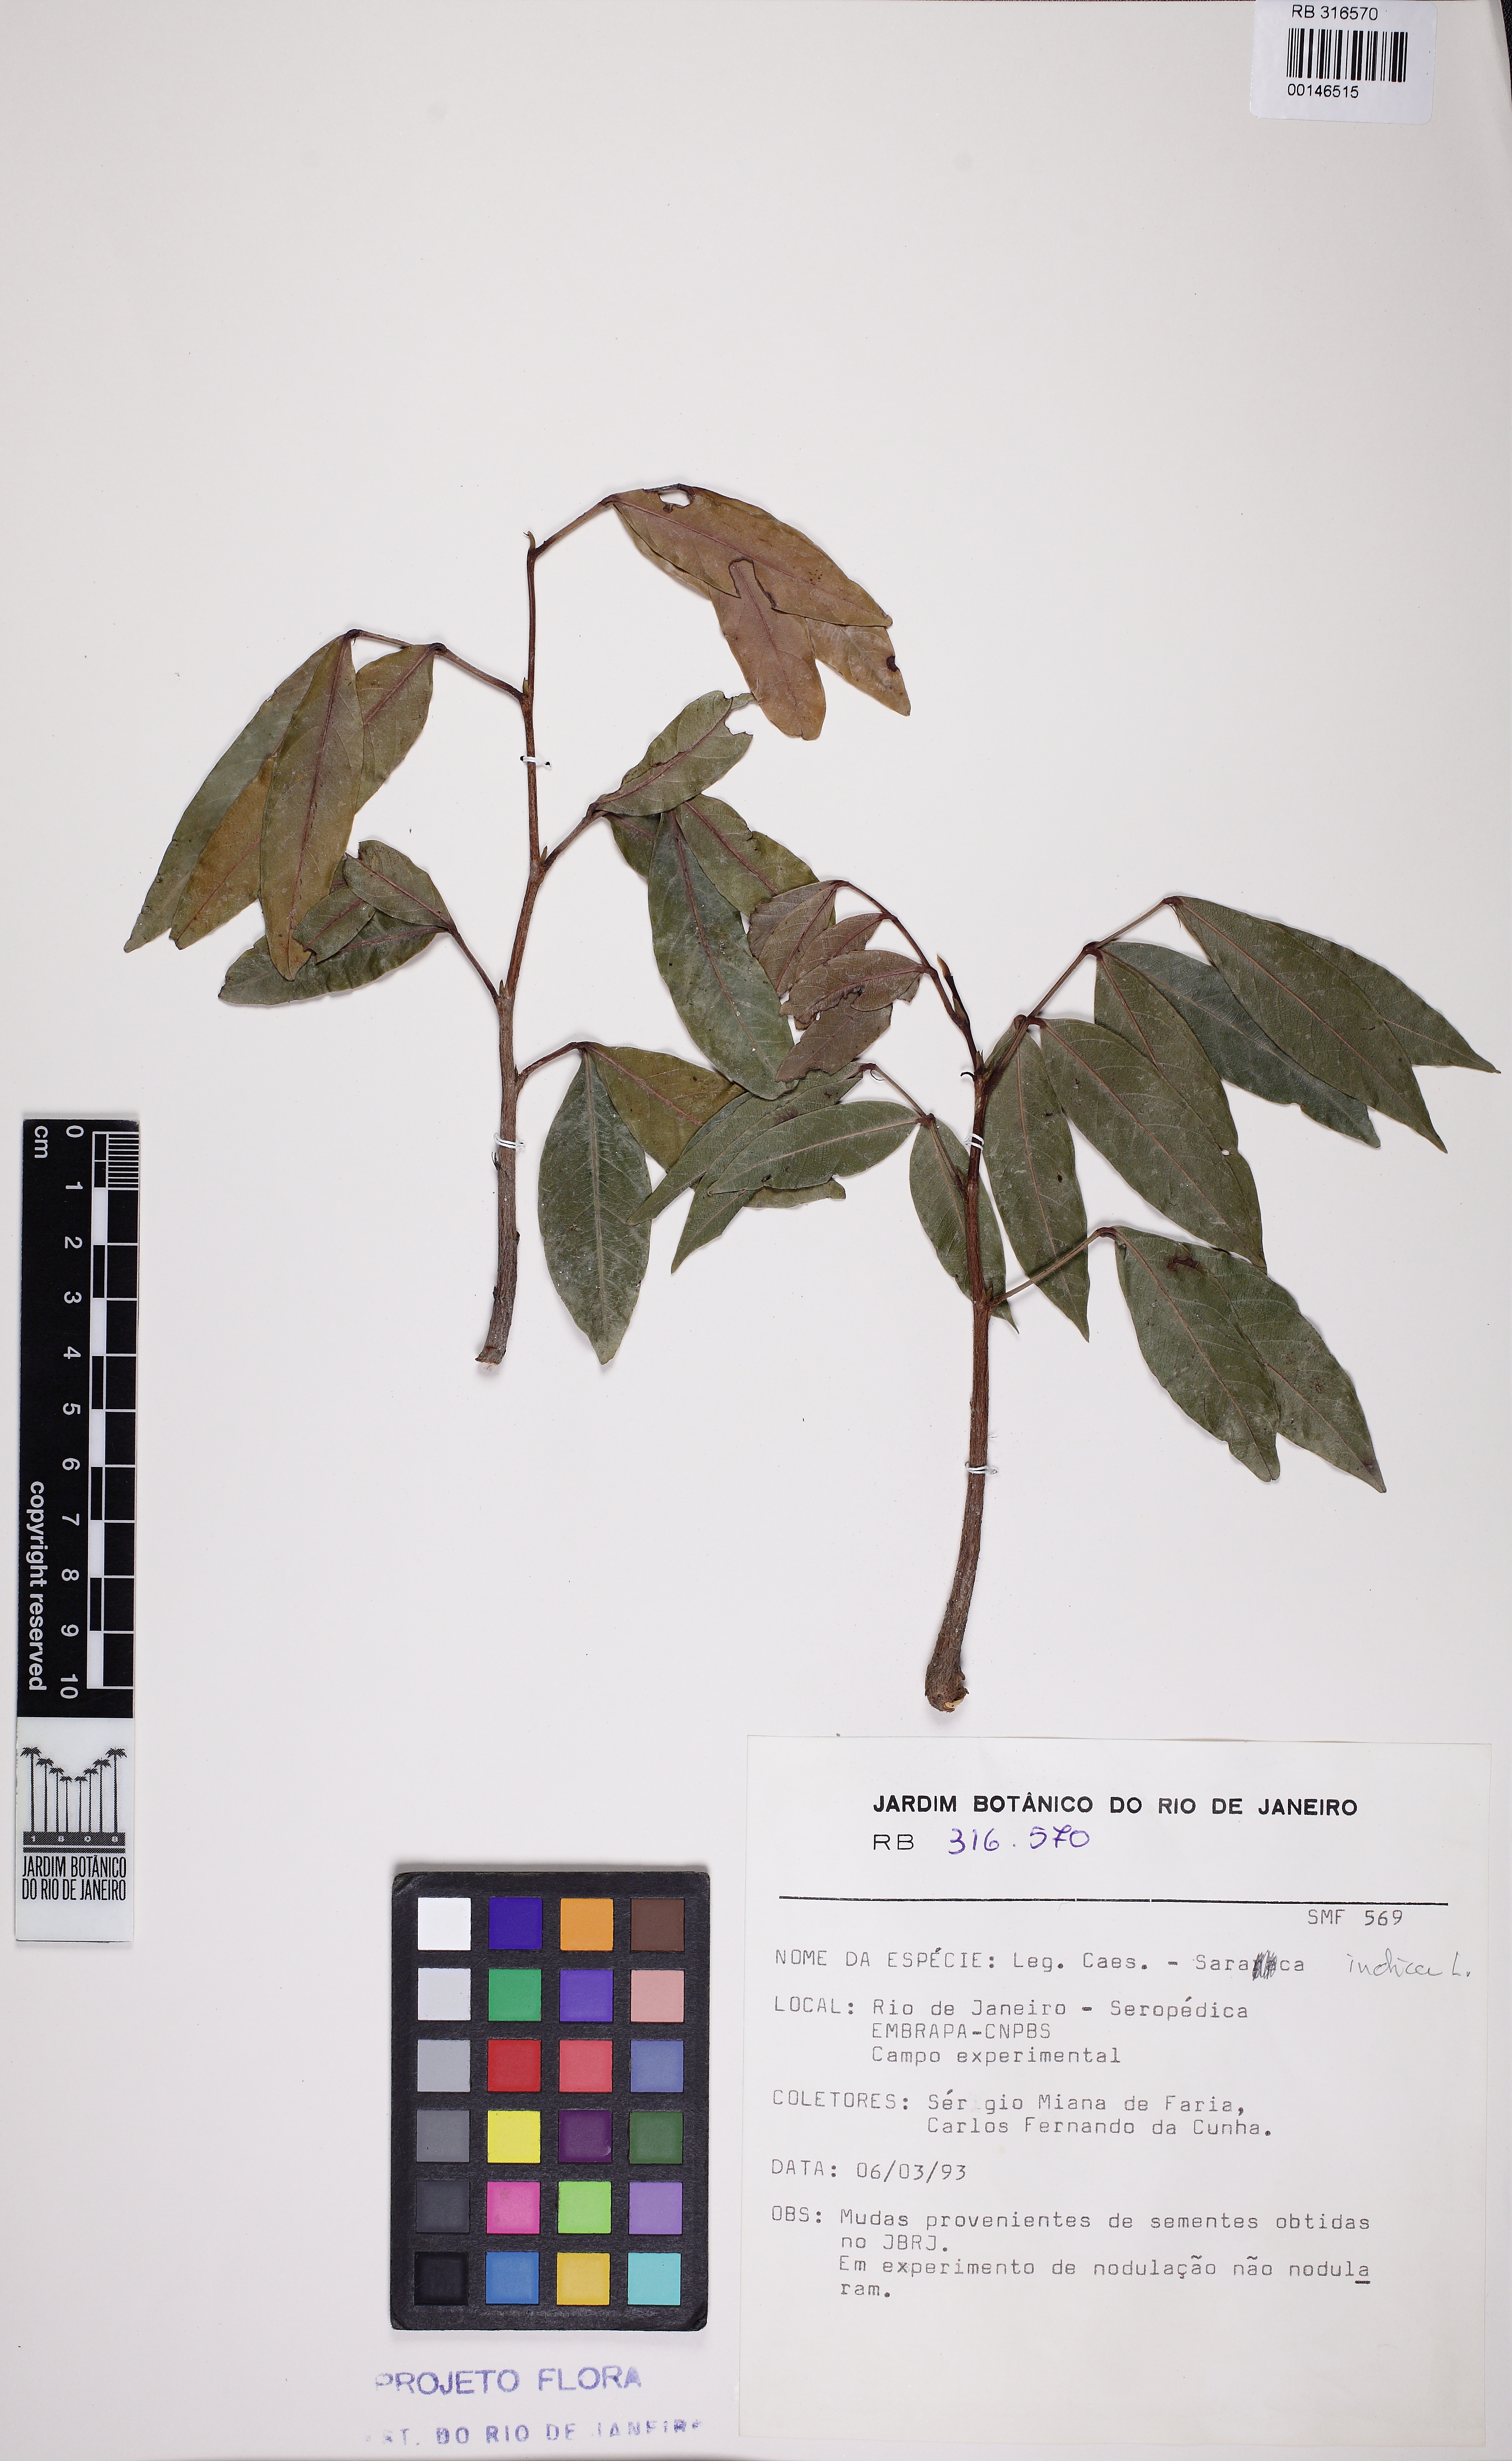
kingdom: Plantae
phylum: Tracheophyta
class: Magnoliopsida
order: Fabales
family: Fabaceae
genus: Saraca
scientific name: Saraca indica
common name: Asoka-tree
